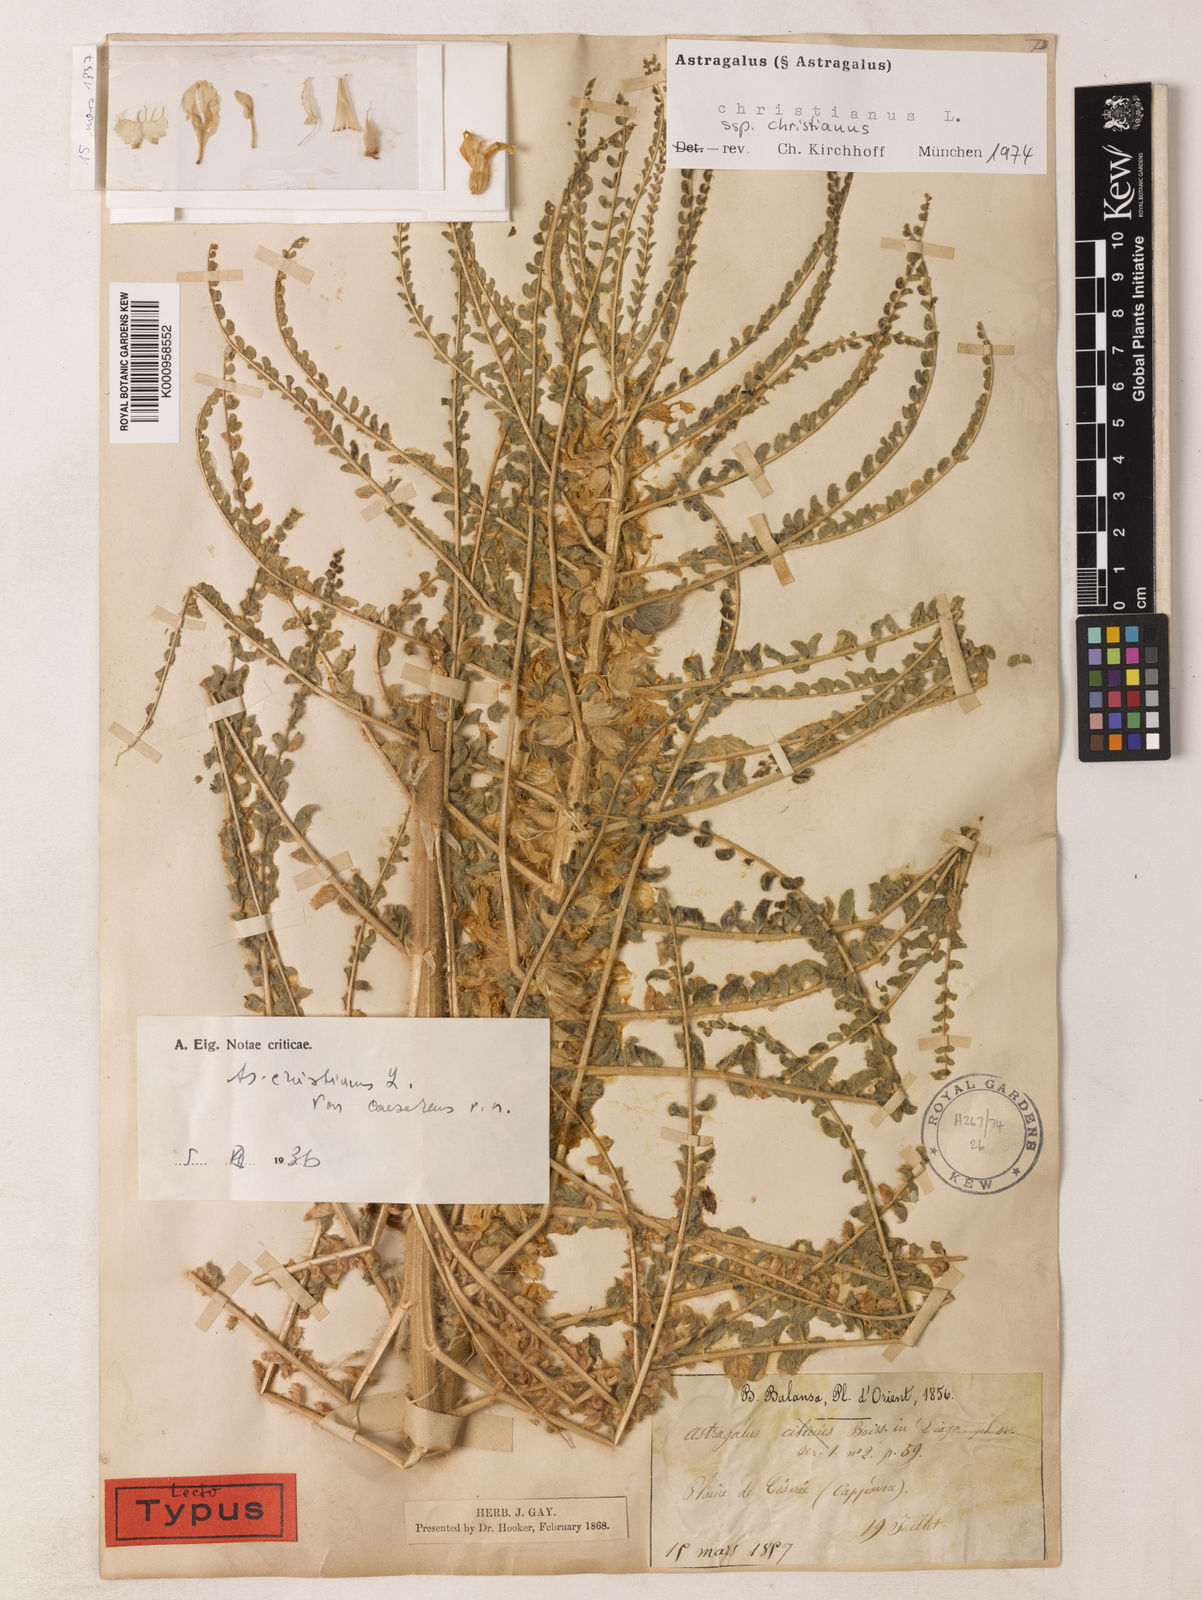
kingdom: Plantae
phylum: Tracheophyta
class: Magnoliopsida
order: Fabales
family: Fabaceae
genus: Astragalus
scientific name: Astragalus christianus
